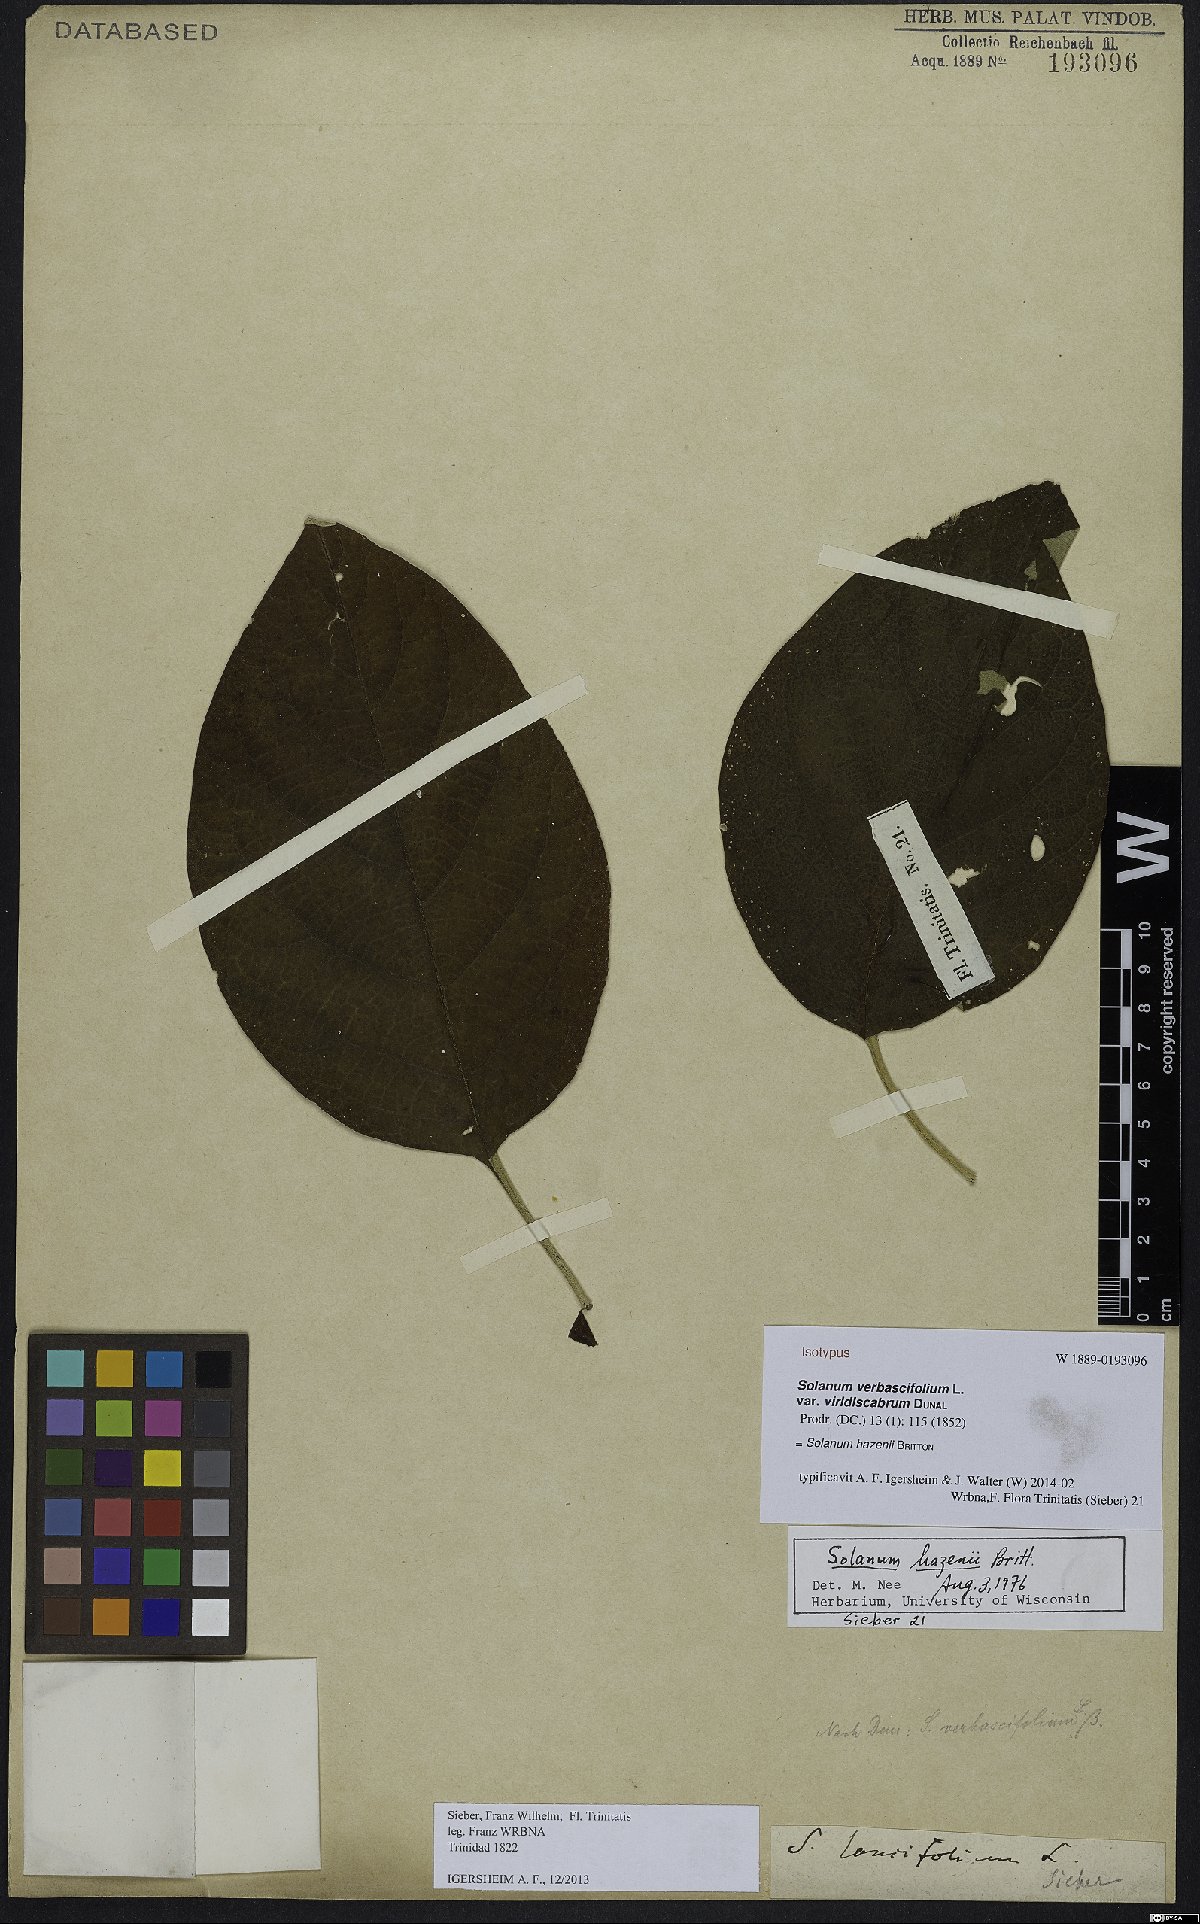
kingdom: Plantae
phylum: Tracheophyta
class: Magnoliopsida
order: Solanales
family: Solanaceae
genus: Solanum
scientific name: Solanum hazenii
